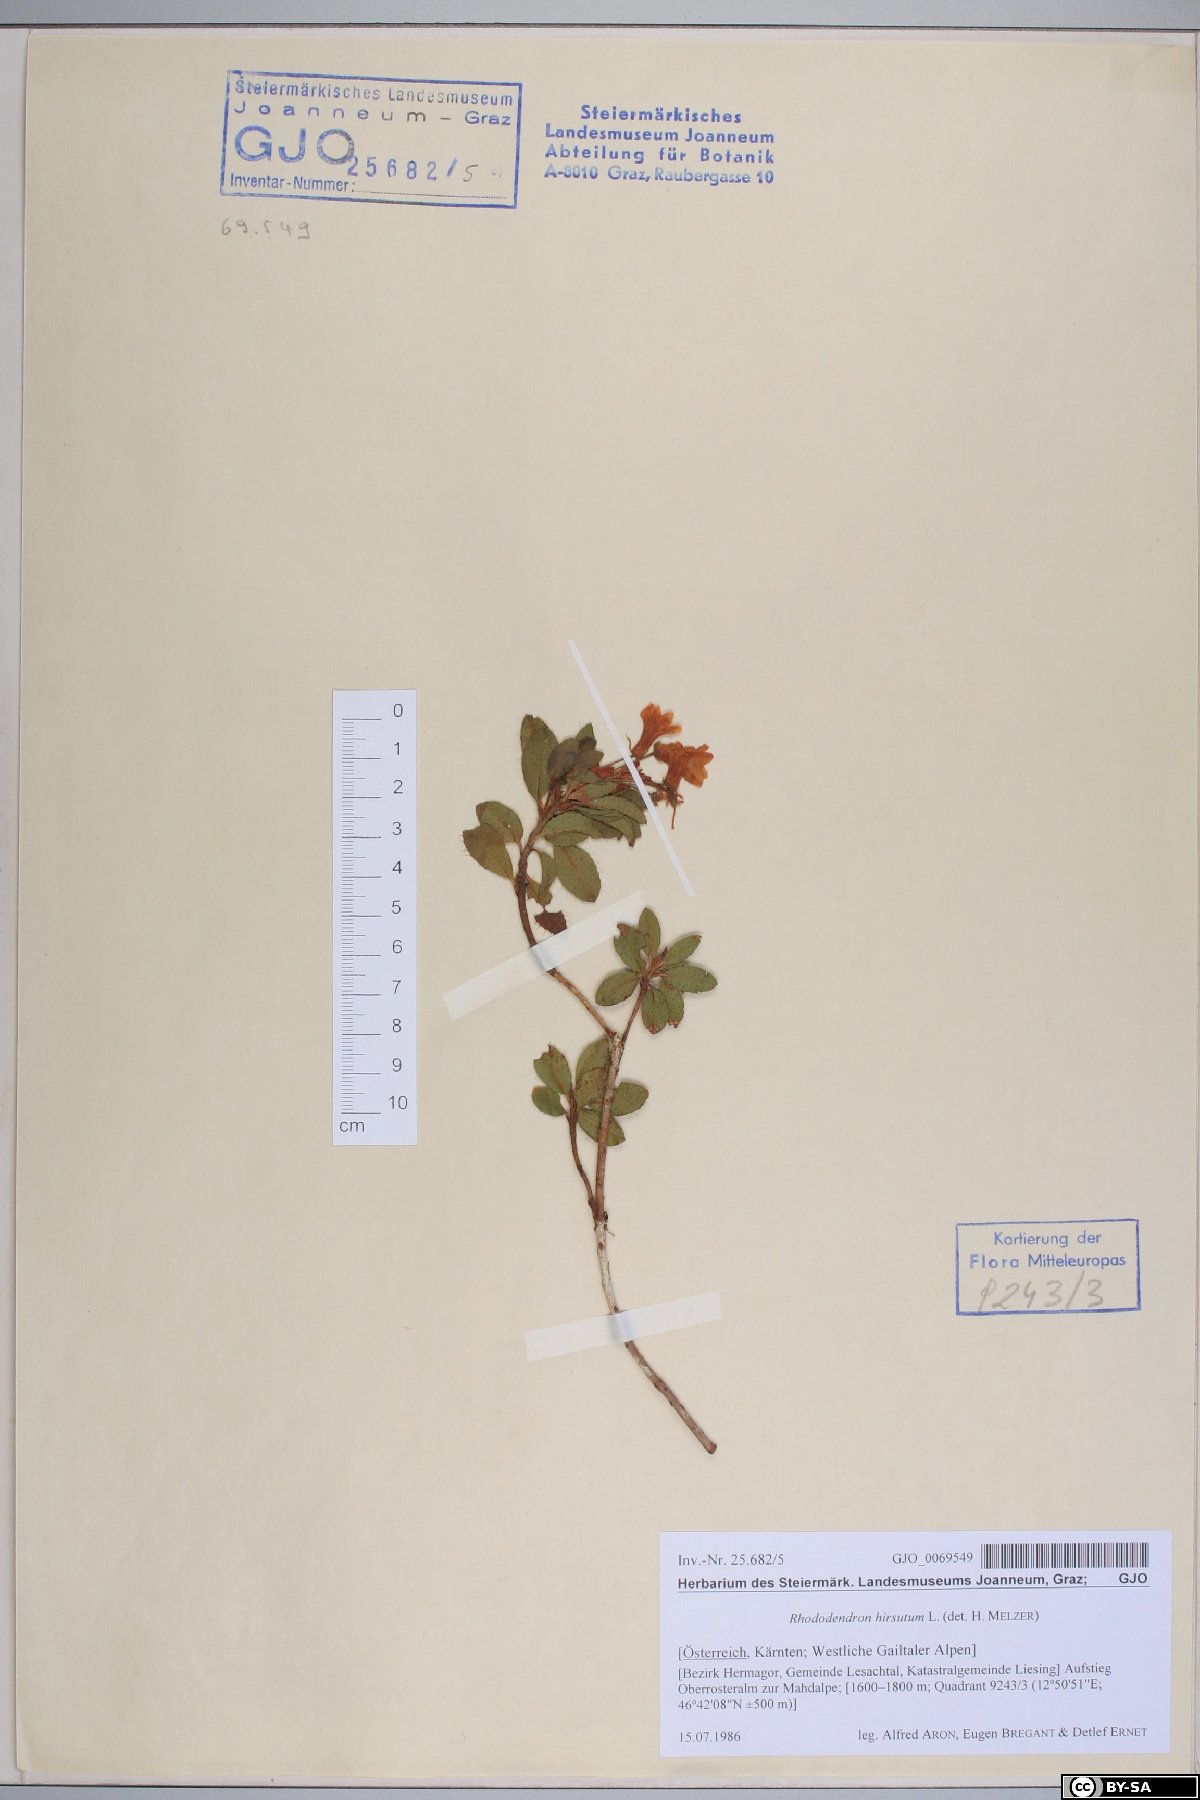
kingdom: Plantae
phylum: Tracheophyta
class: Magnoliopsida
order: Ericales
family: Ericaceae
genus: Rhododendron
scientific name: Rhododendron hirsutum
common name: Hairy alpenrose
